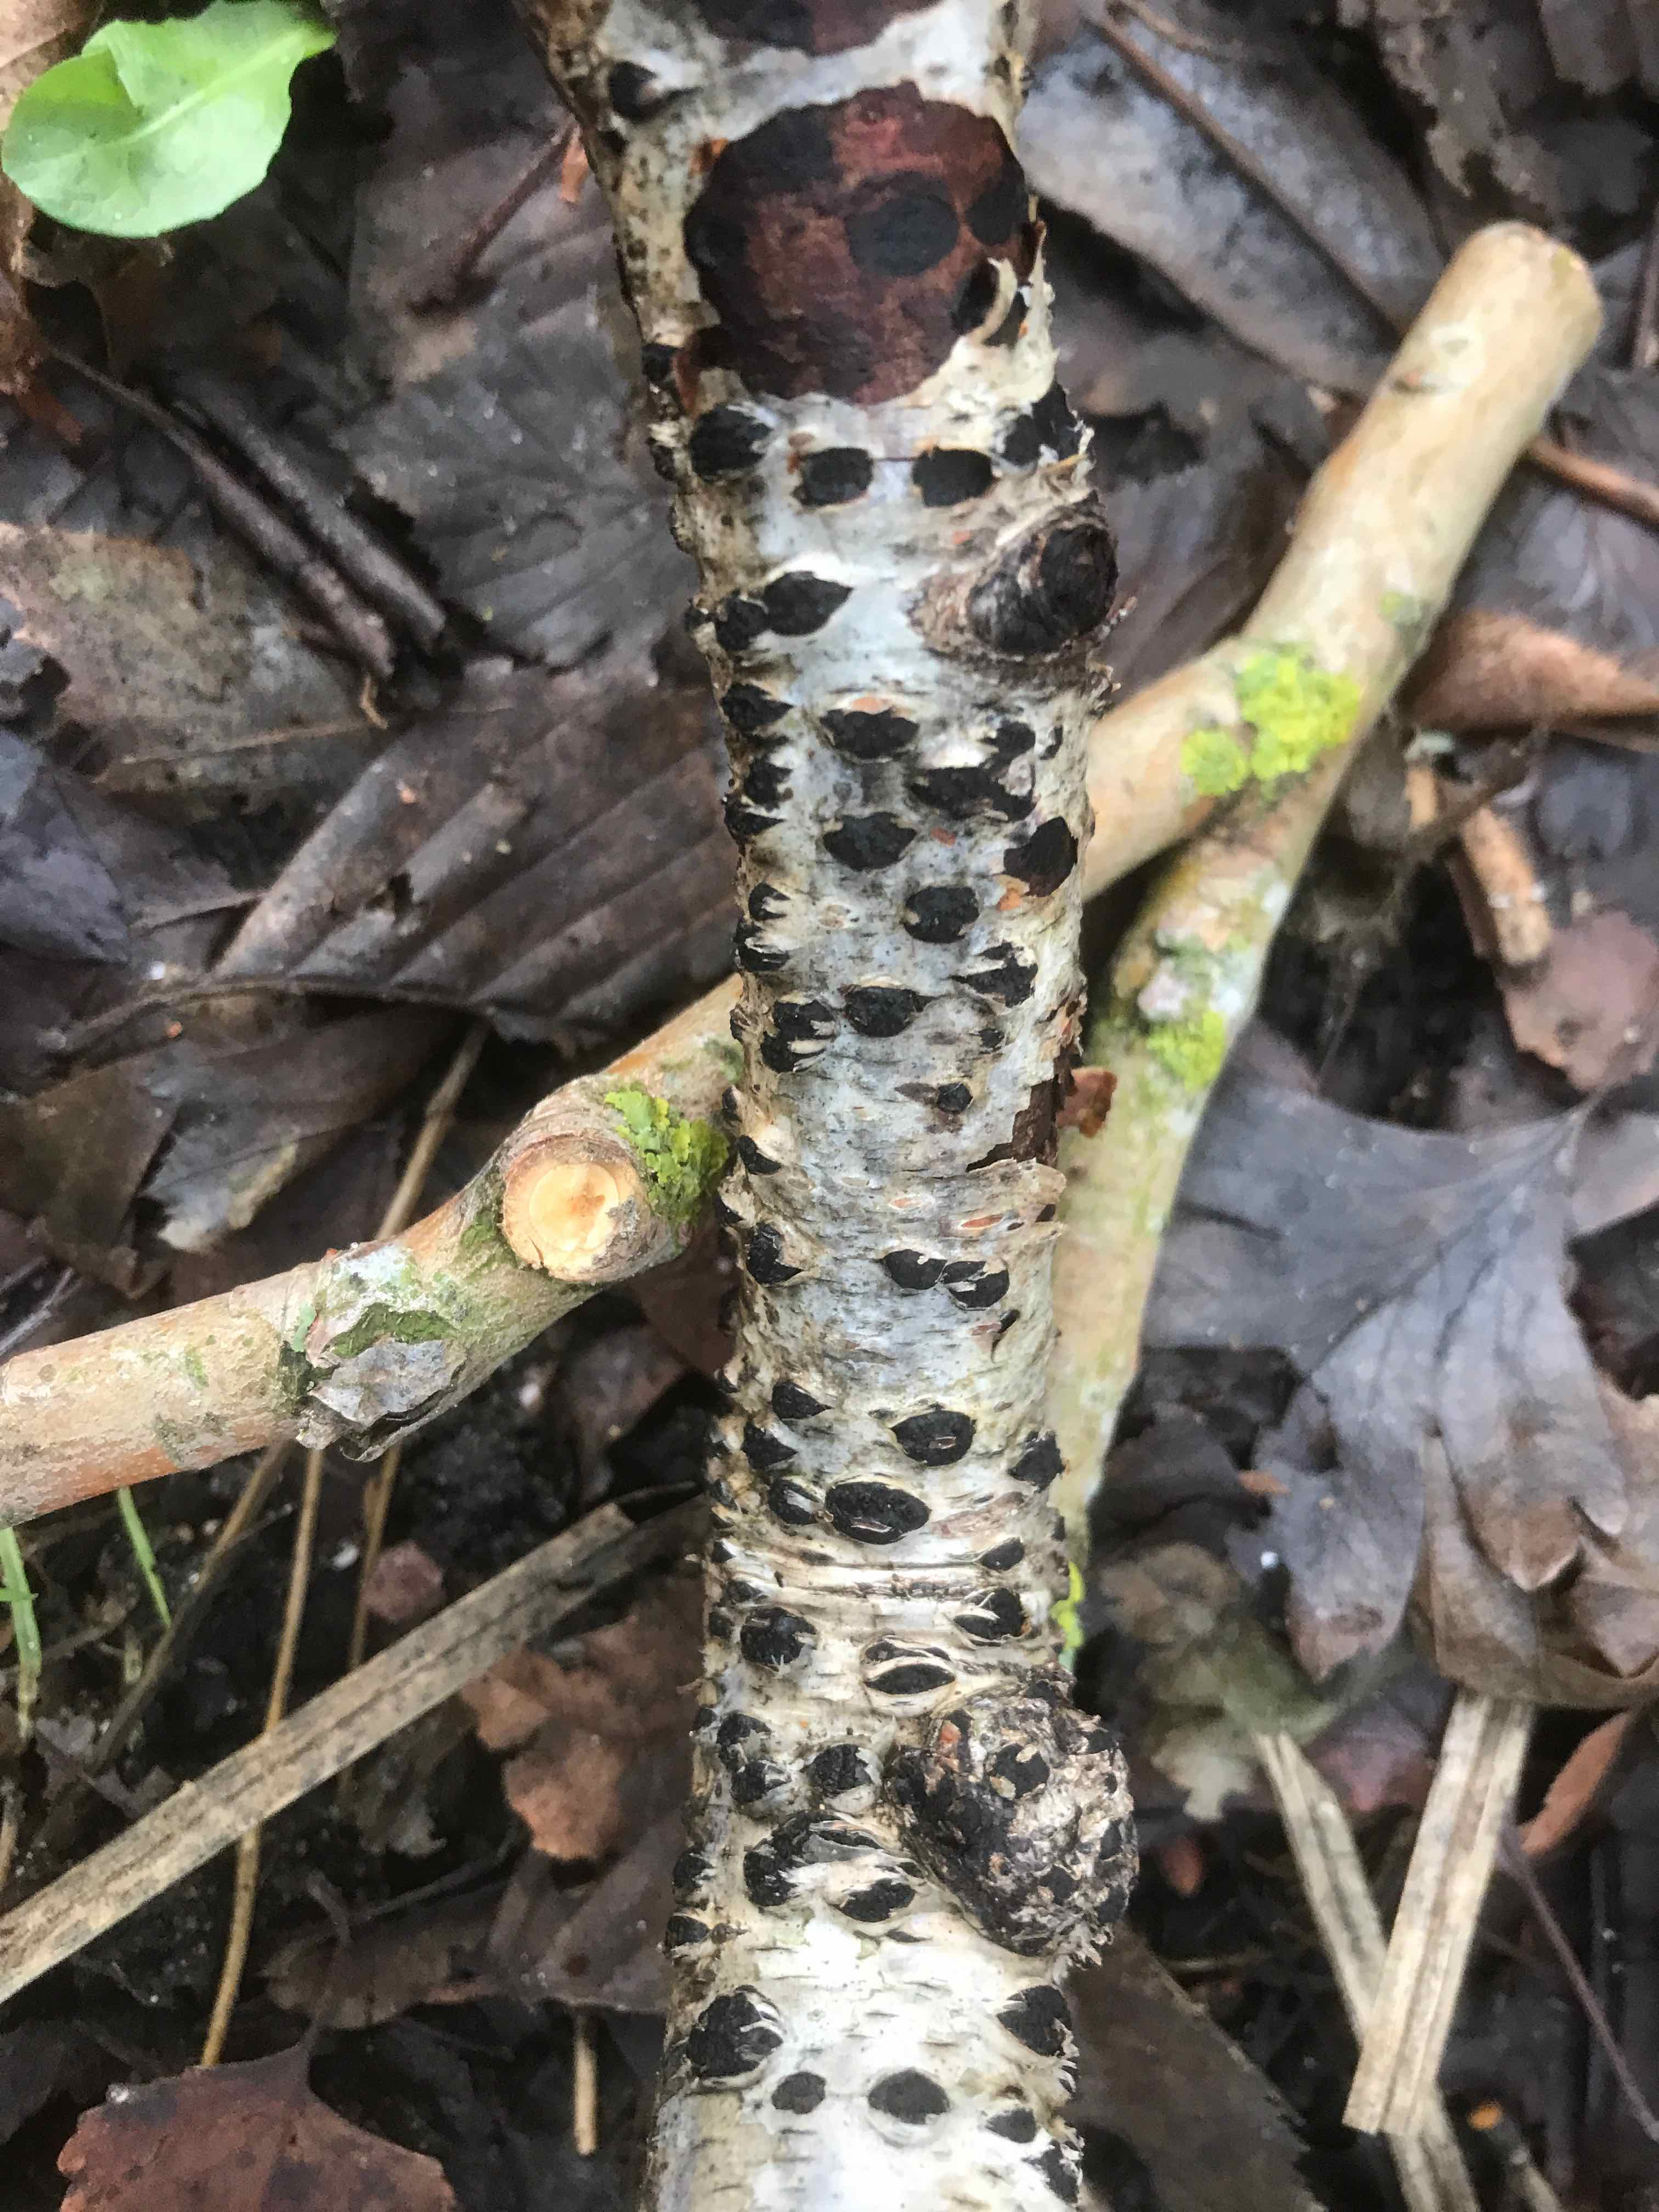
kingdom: Fungi
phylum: Ascomycota
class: Sordariomycetes
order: Xylariales
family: Diatrypaceae
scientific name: Diatrypaceae
